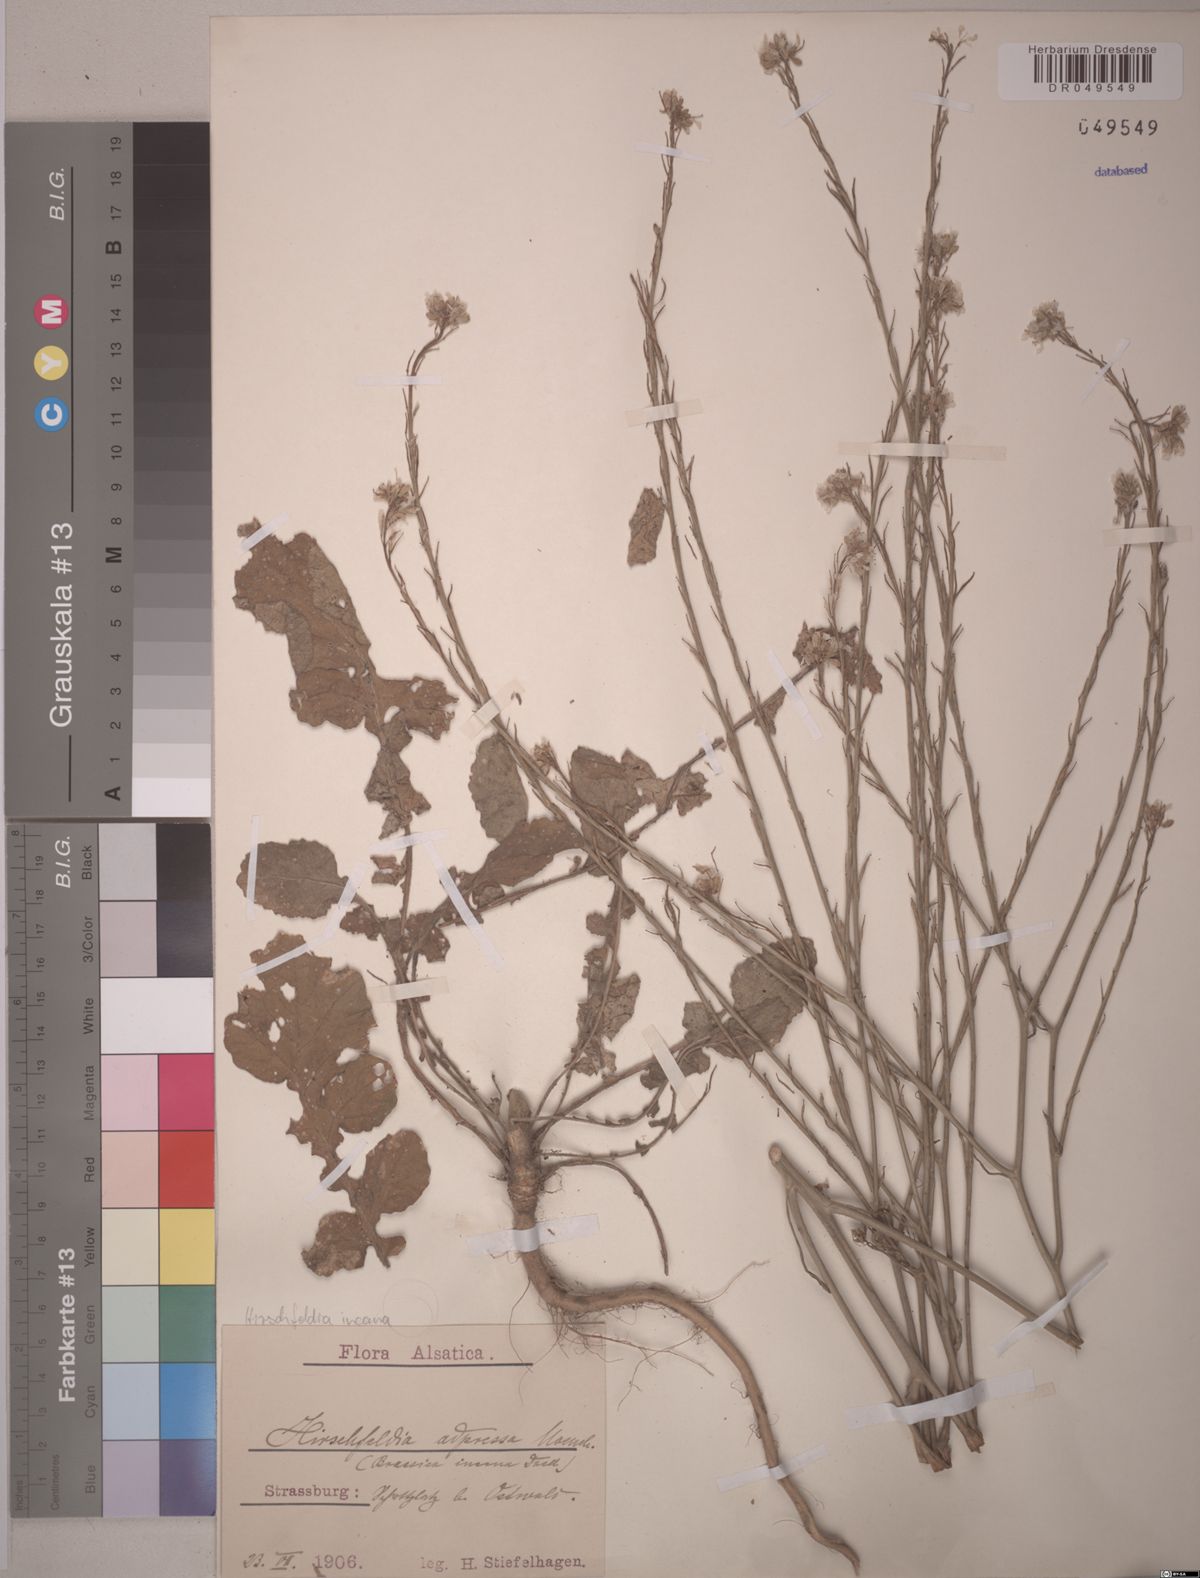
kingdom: Plantae
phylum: Tracheophyta
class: Magnoliopsida
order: Brassicales
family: Brassicaceae
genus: Hirschfeldia
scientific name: Hirschfeldia incana
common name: Hoary mustard
